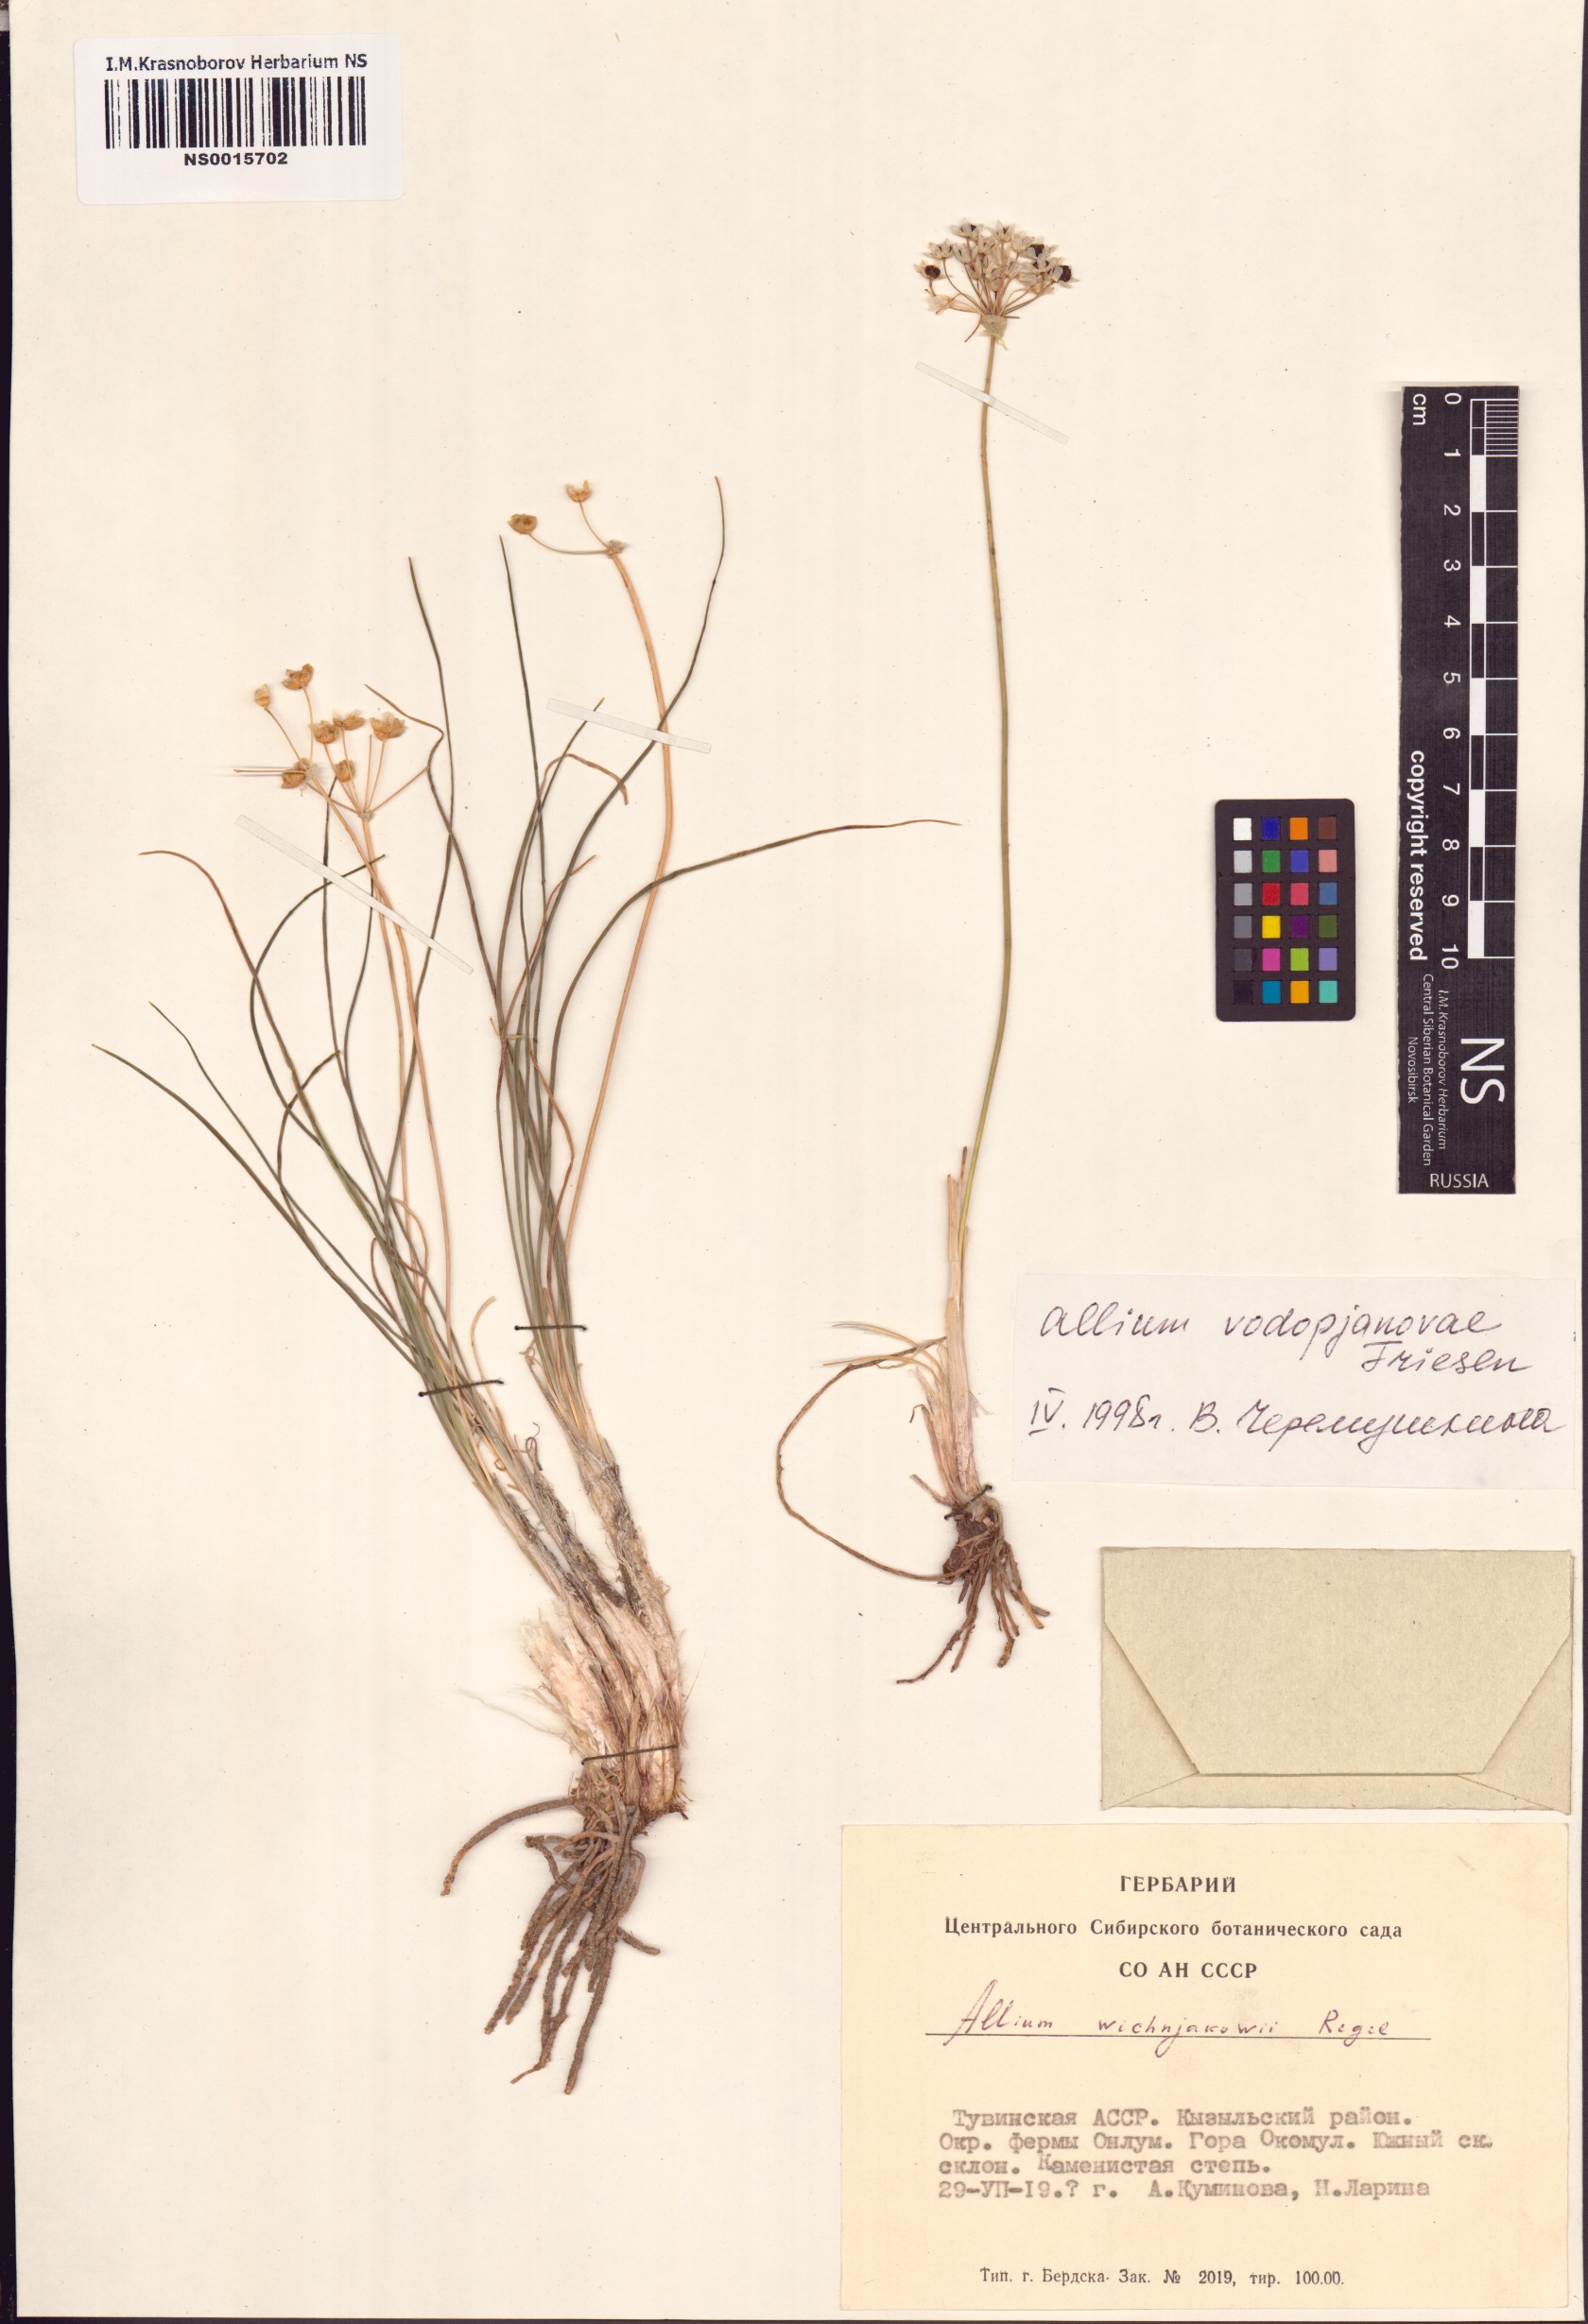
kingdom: Plantae
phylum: Tracheophyta
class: Liliopsida
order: Asparagales
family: Amaryllidaceae
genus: Allium
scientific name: Allium vodopjanovae
